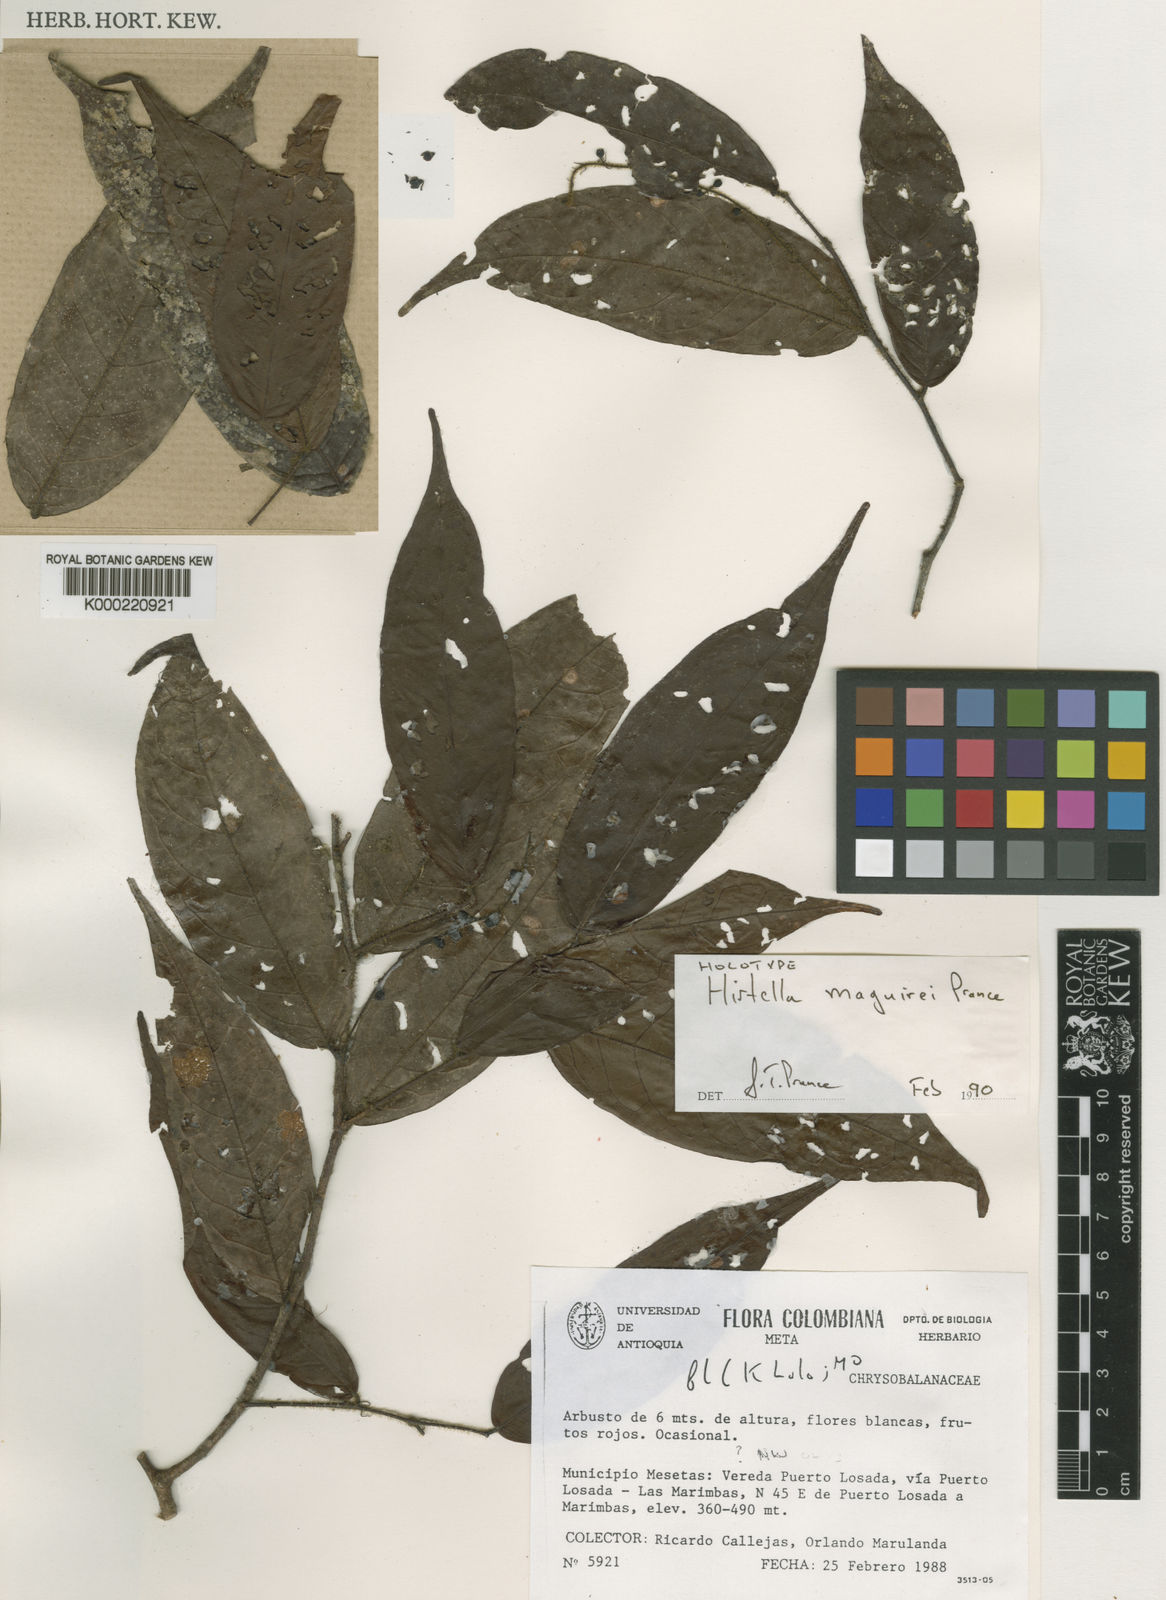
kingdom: Plantae
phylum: Tracheophyta
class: Magnoliopsida
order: Malpighiales
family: Chrysobalanaceae
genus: Hirtella
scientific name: Hirtella maguirei
